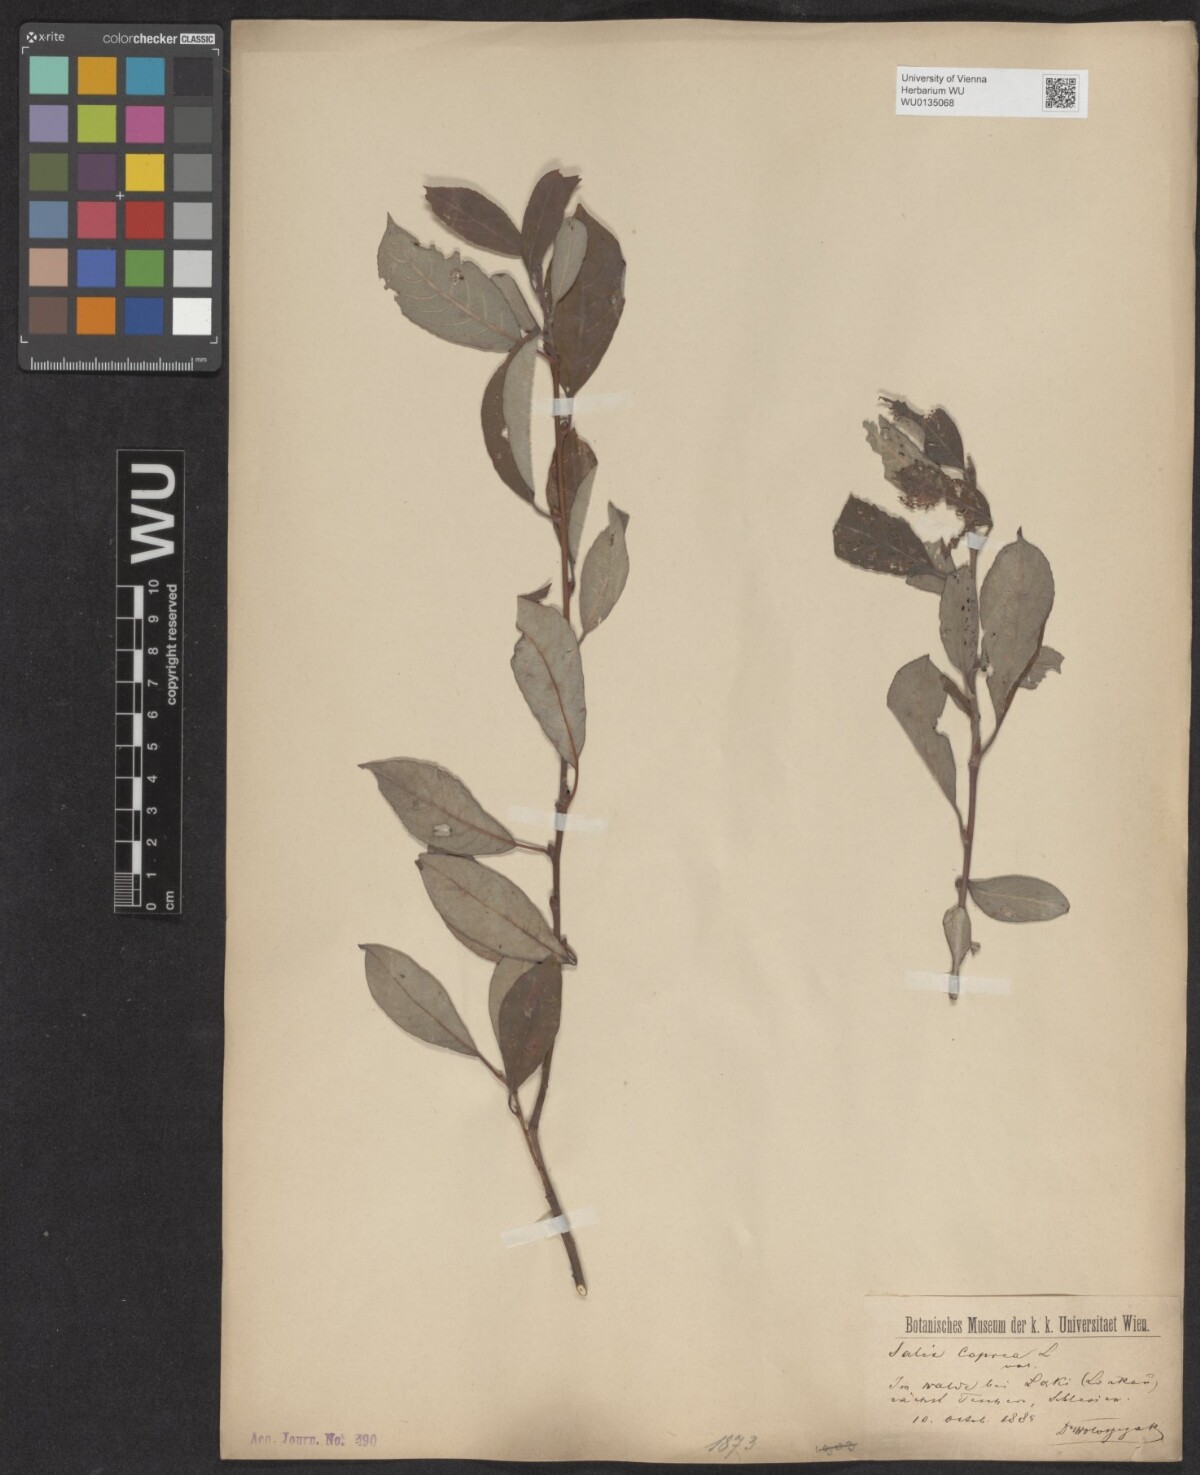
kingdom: Plantae
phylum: Tracheophyta
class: Magnoliopsida
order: Malpighiales
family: Salicaceae
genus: Salix
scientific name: Salix caprea
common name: Goat willow
